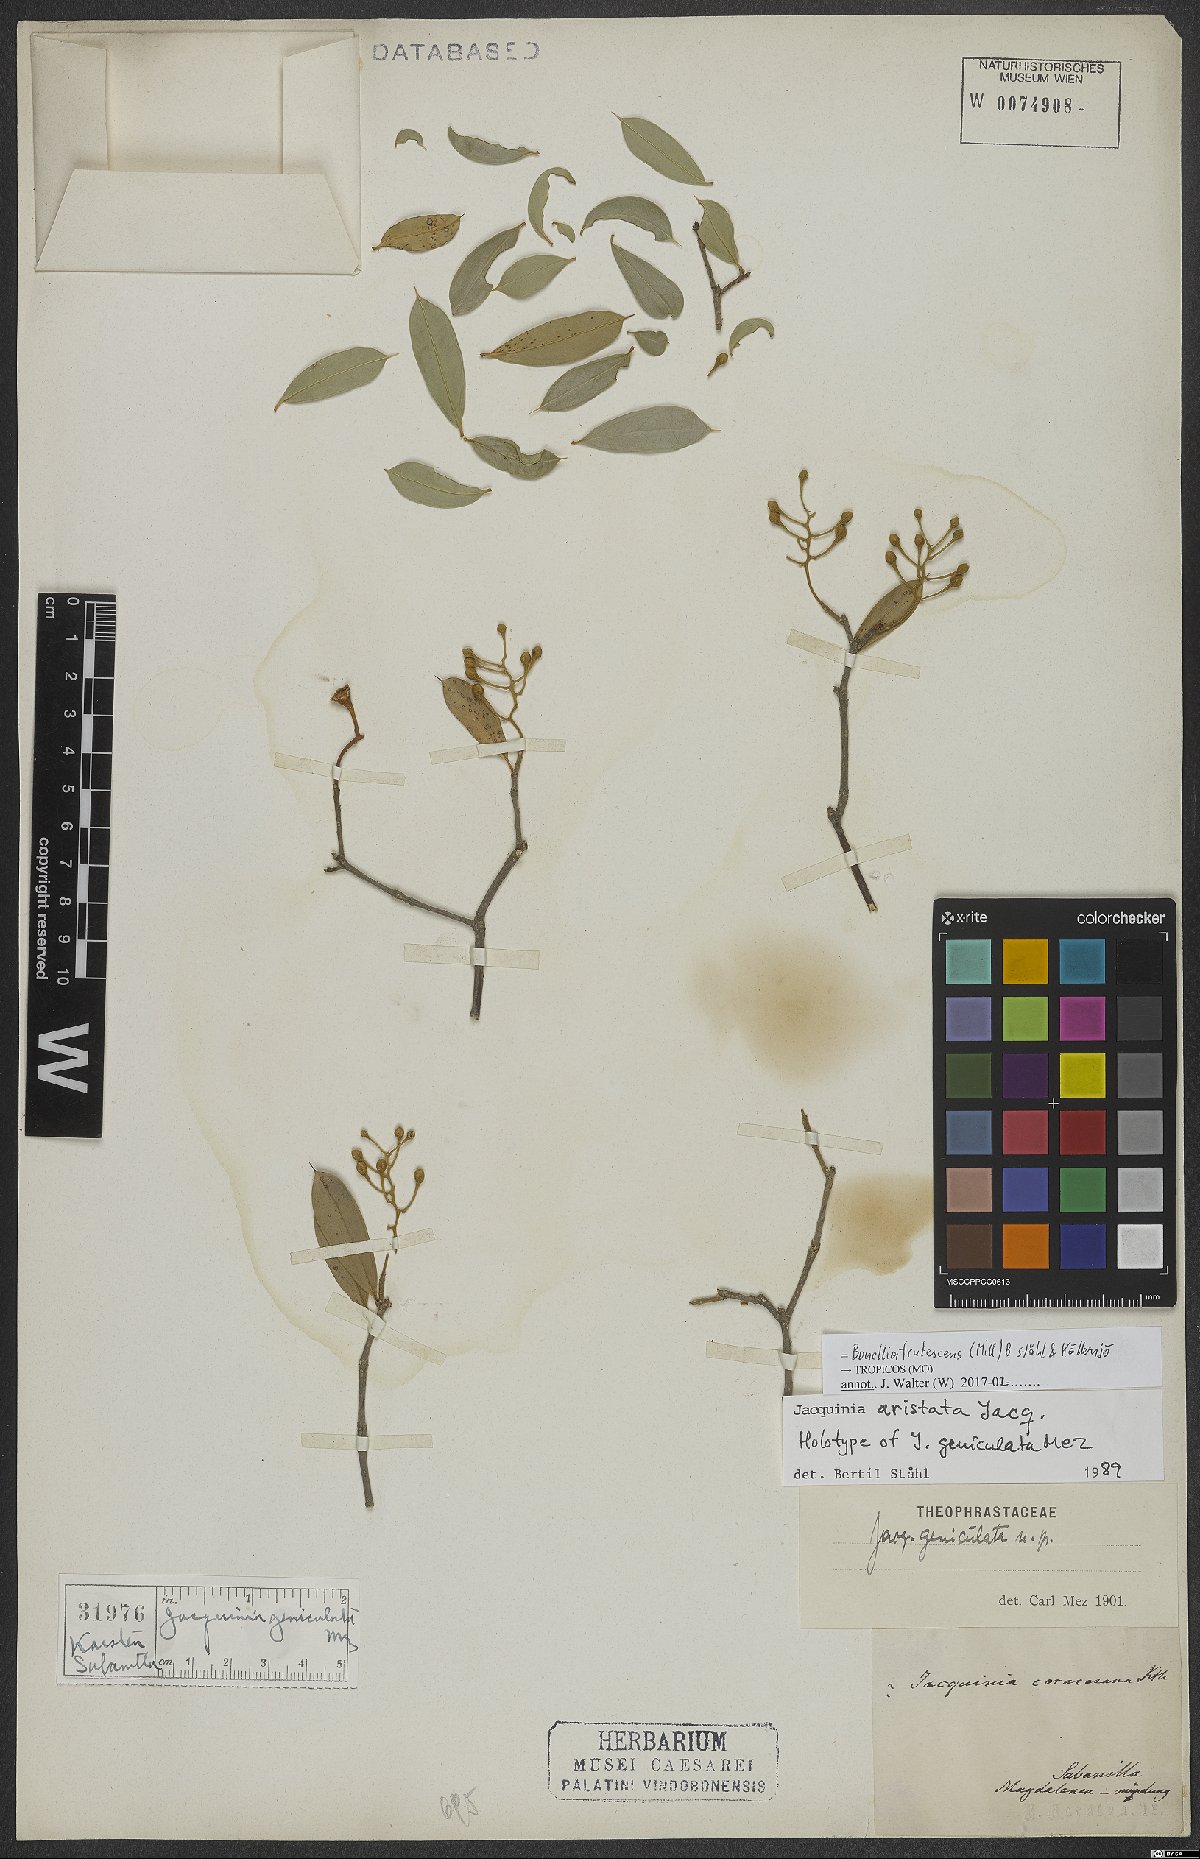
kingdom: Plantae
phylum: Tracheophyta
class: Magnoliopsida
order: Ericales
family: Primulaceae
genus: Bonellia
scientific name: Bonellia frutescens
